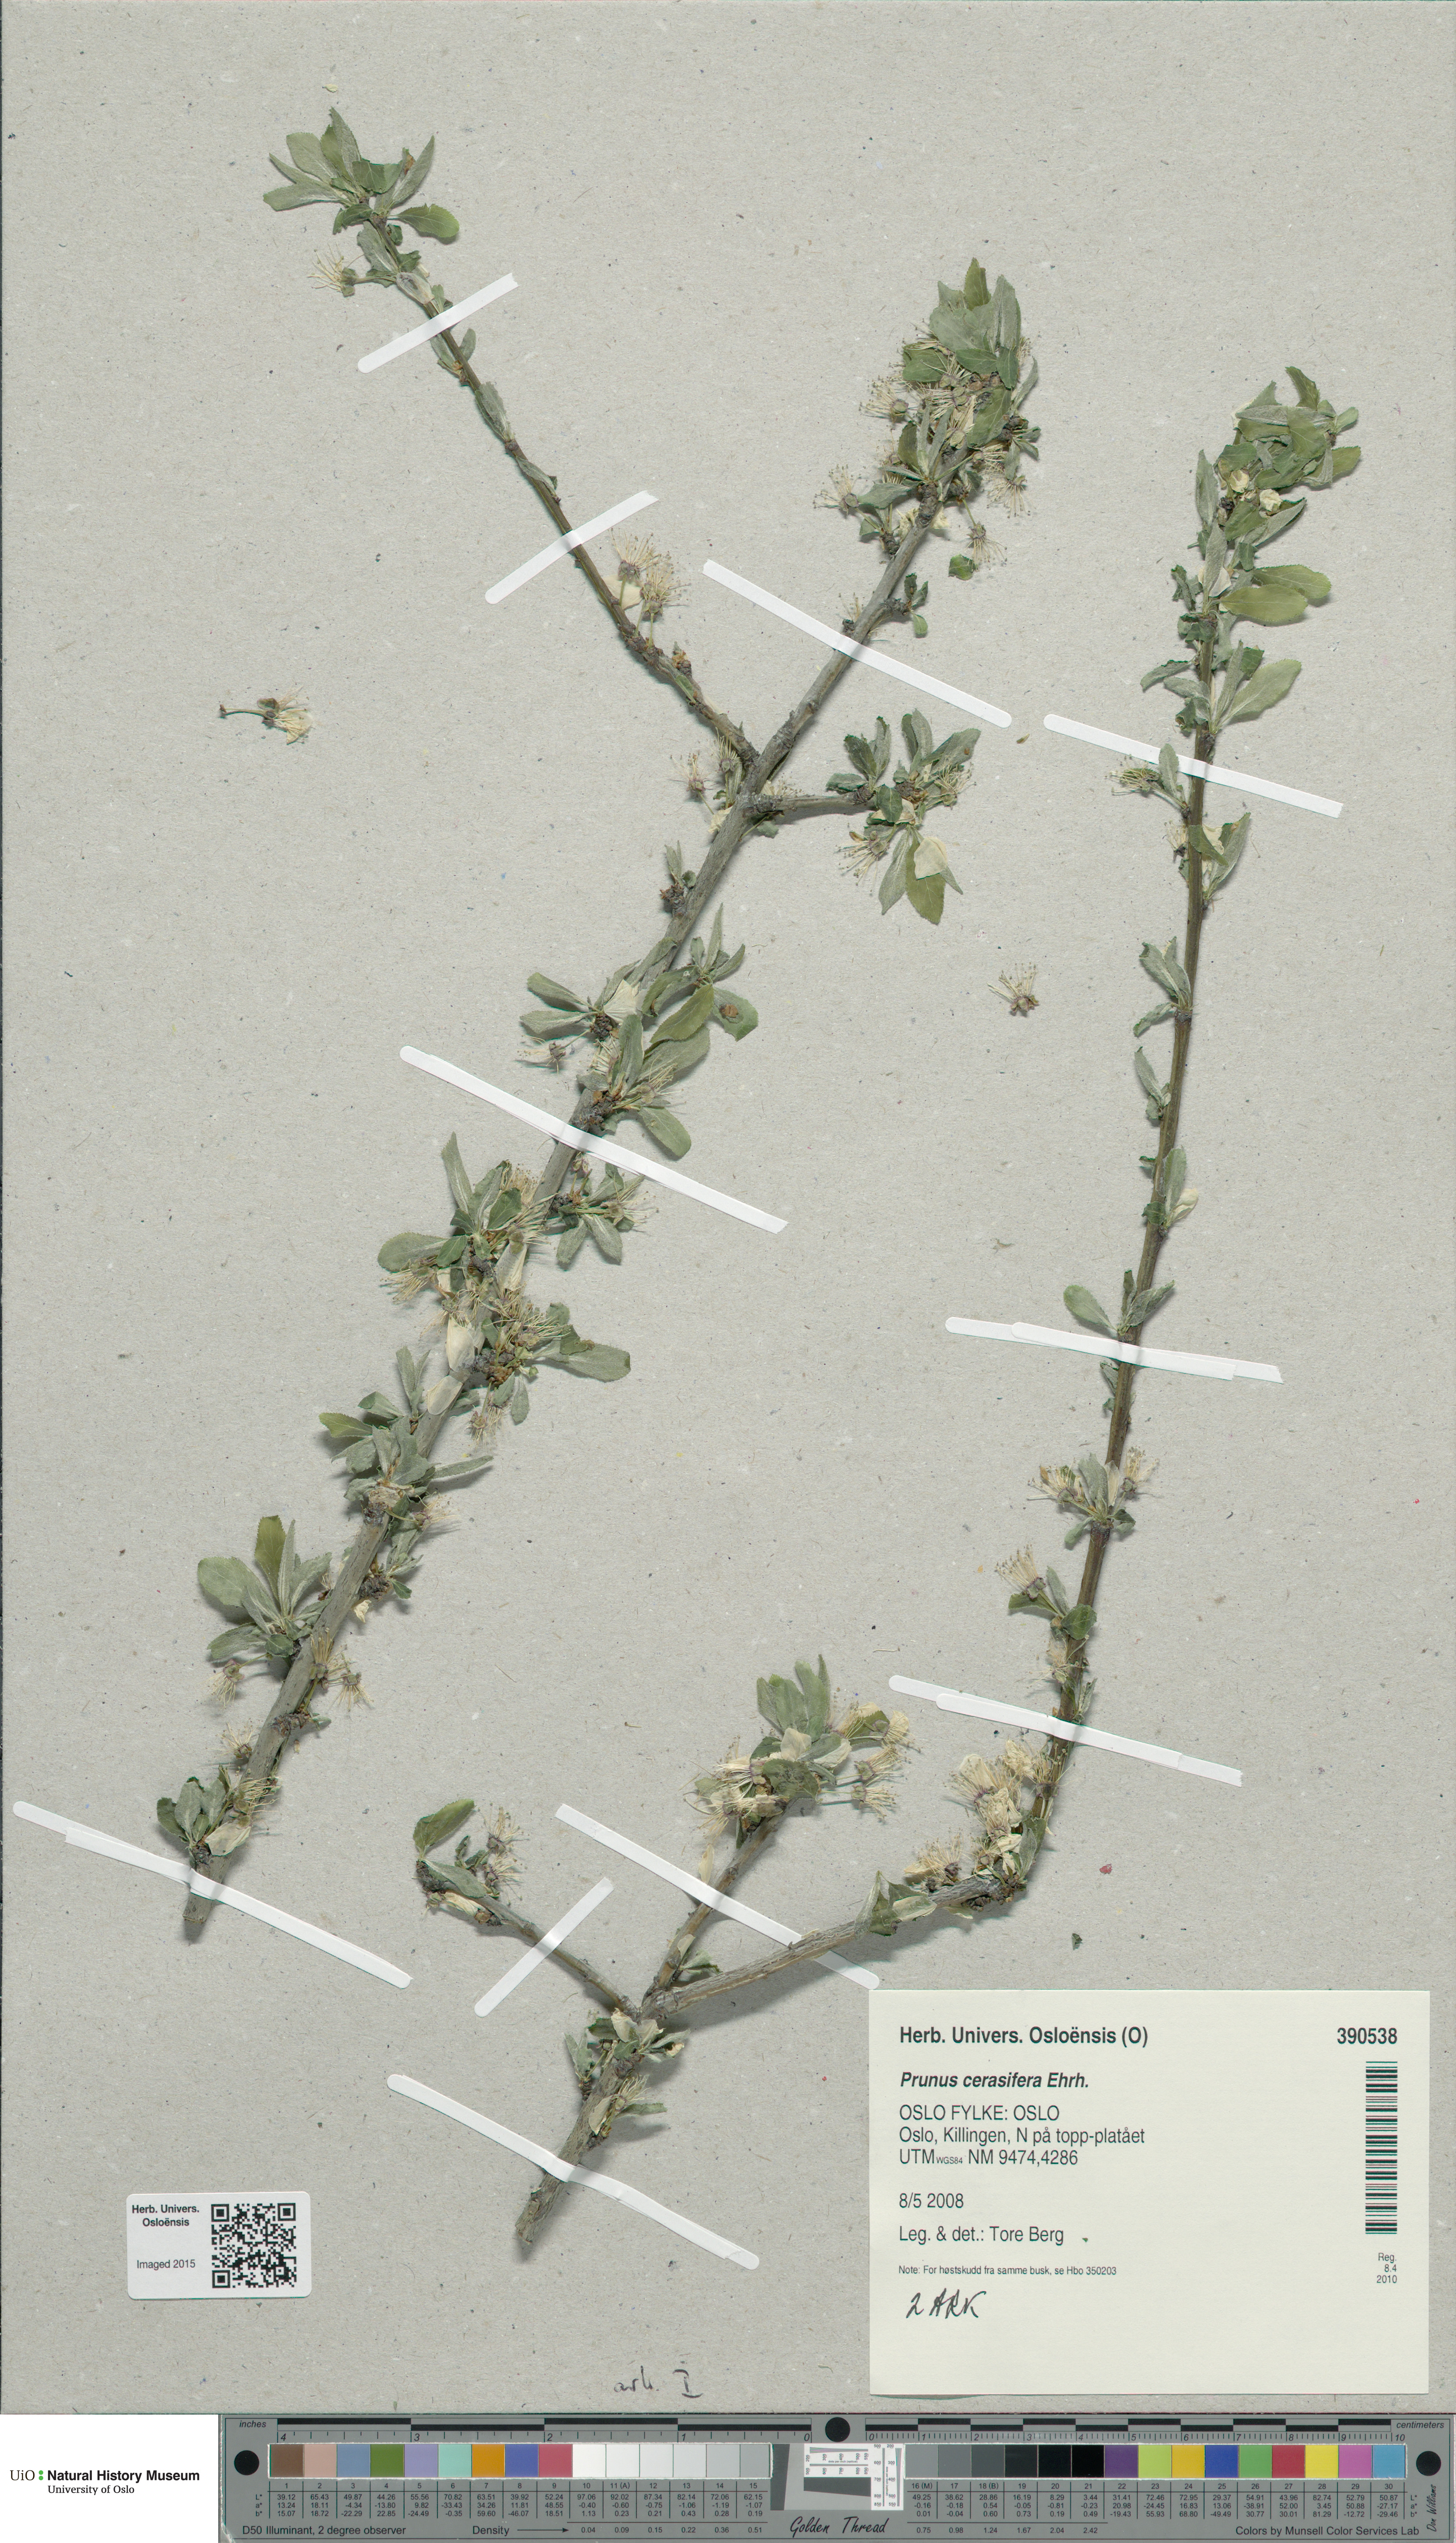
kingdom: Plantae
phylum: Tracheophyta
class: Magnoliopsida
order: Rosales
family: Rosaceae
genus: Prunus
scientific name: Prunus cerasifera
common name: Cherry plum
